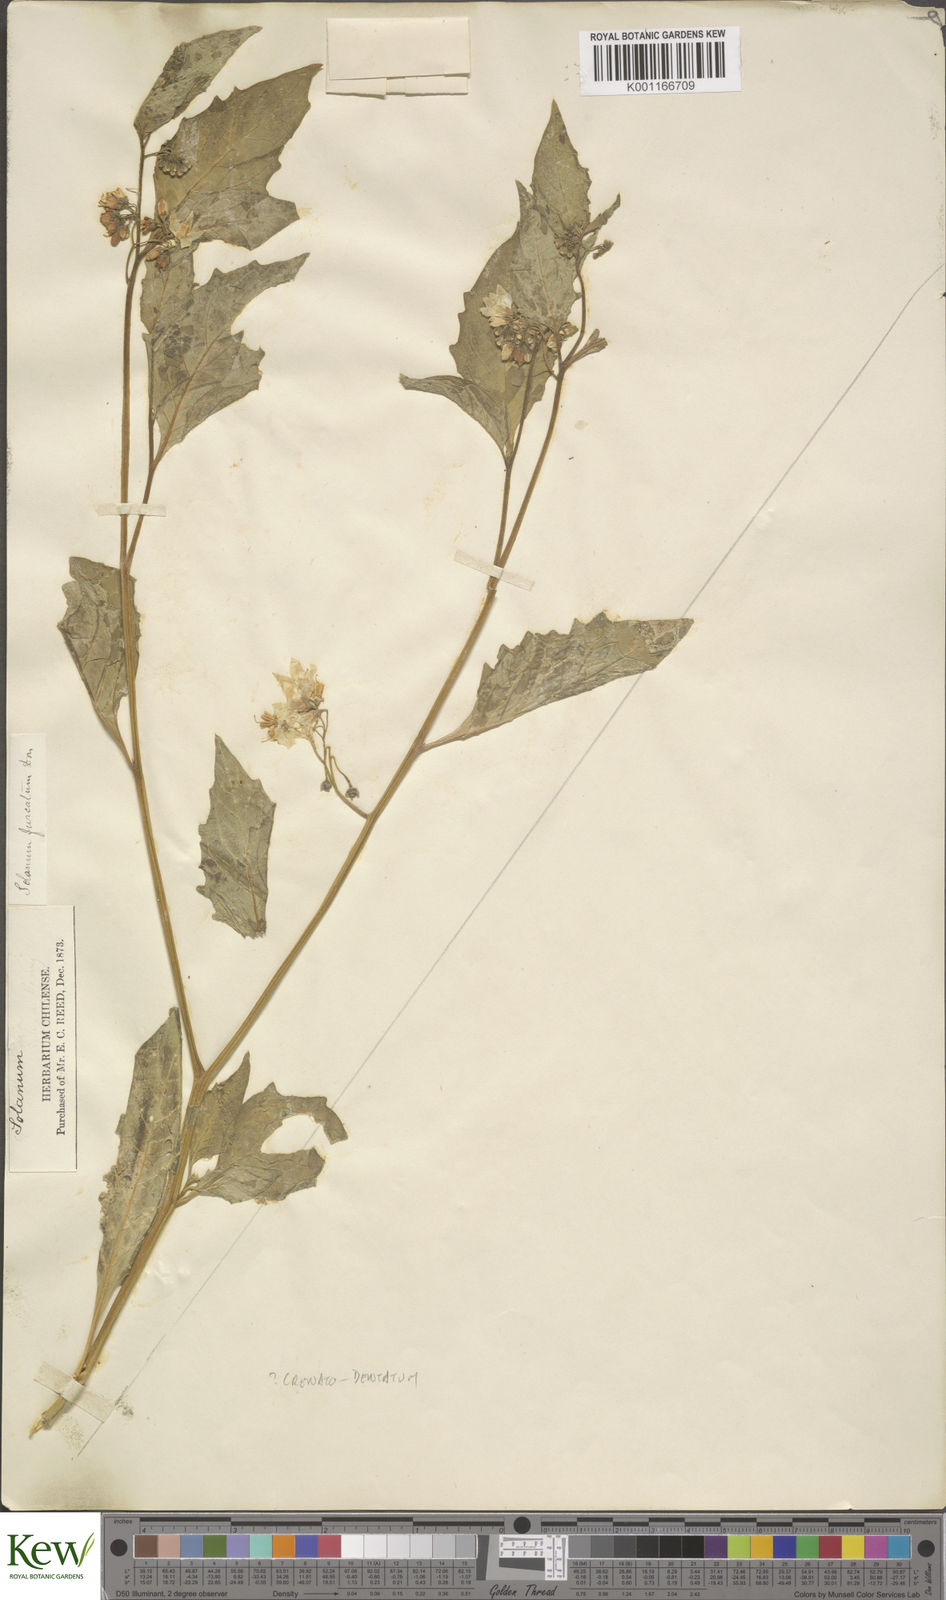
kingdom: Plantae
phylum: Tracheophyta
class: Magnoliopsida
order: Solanales
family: Solanaceae
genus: Solanum
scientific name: Solanum furcatum
